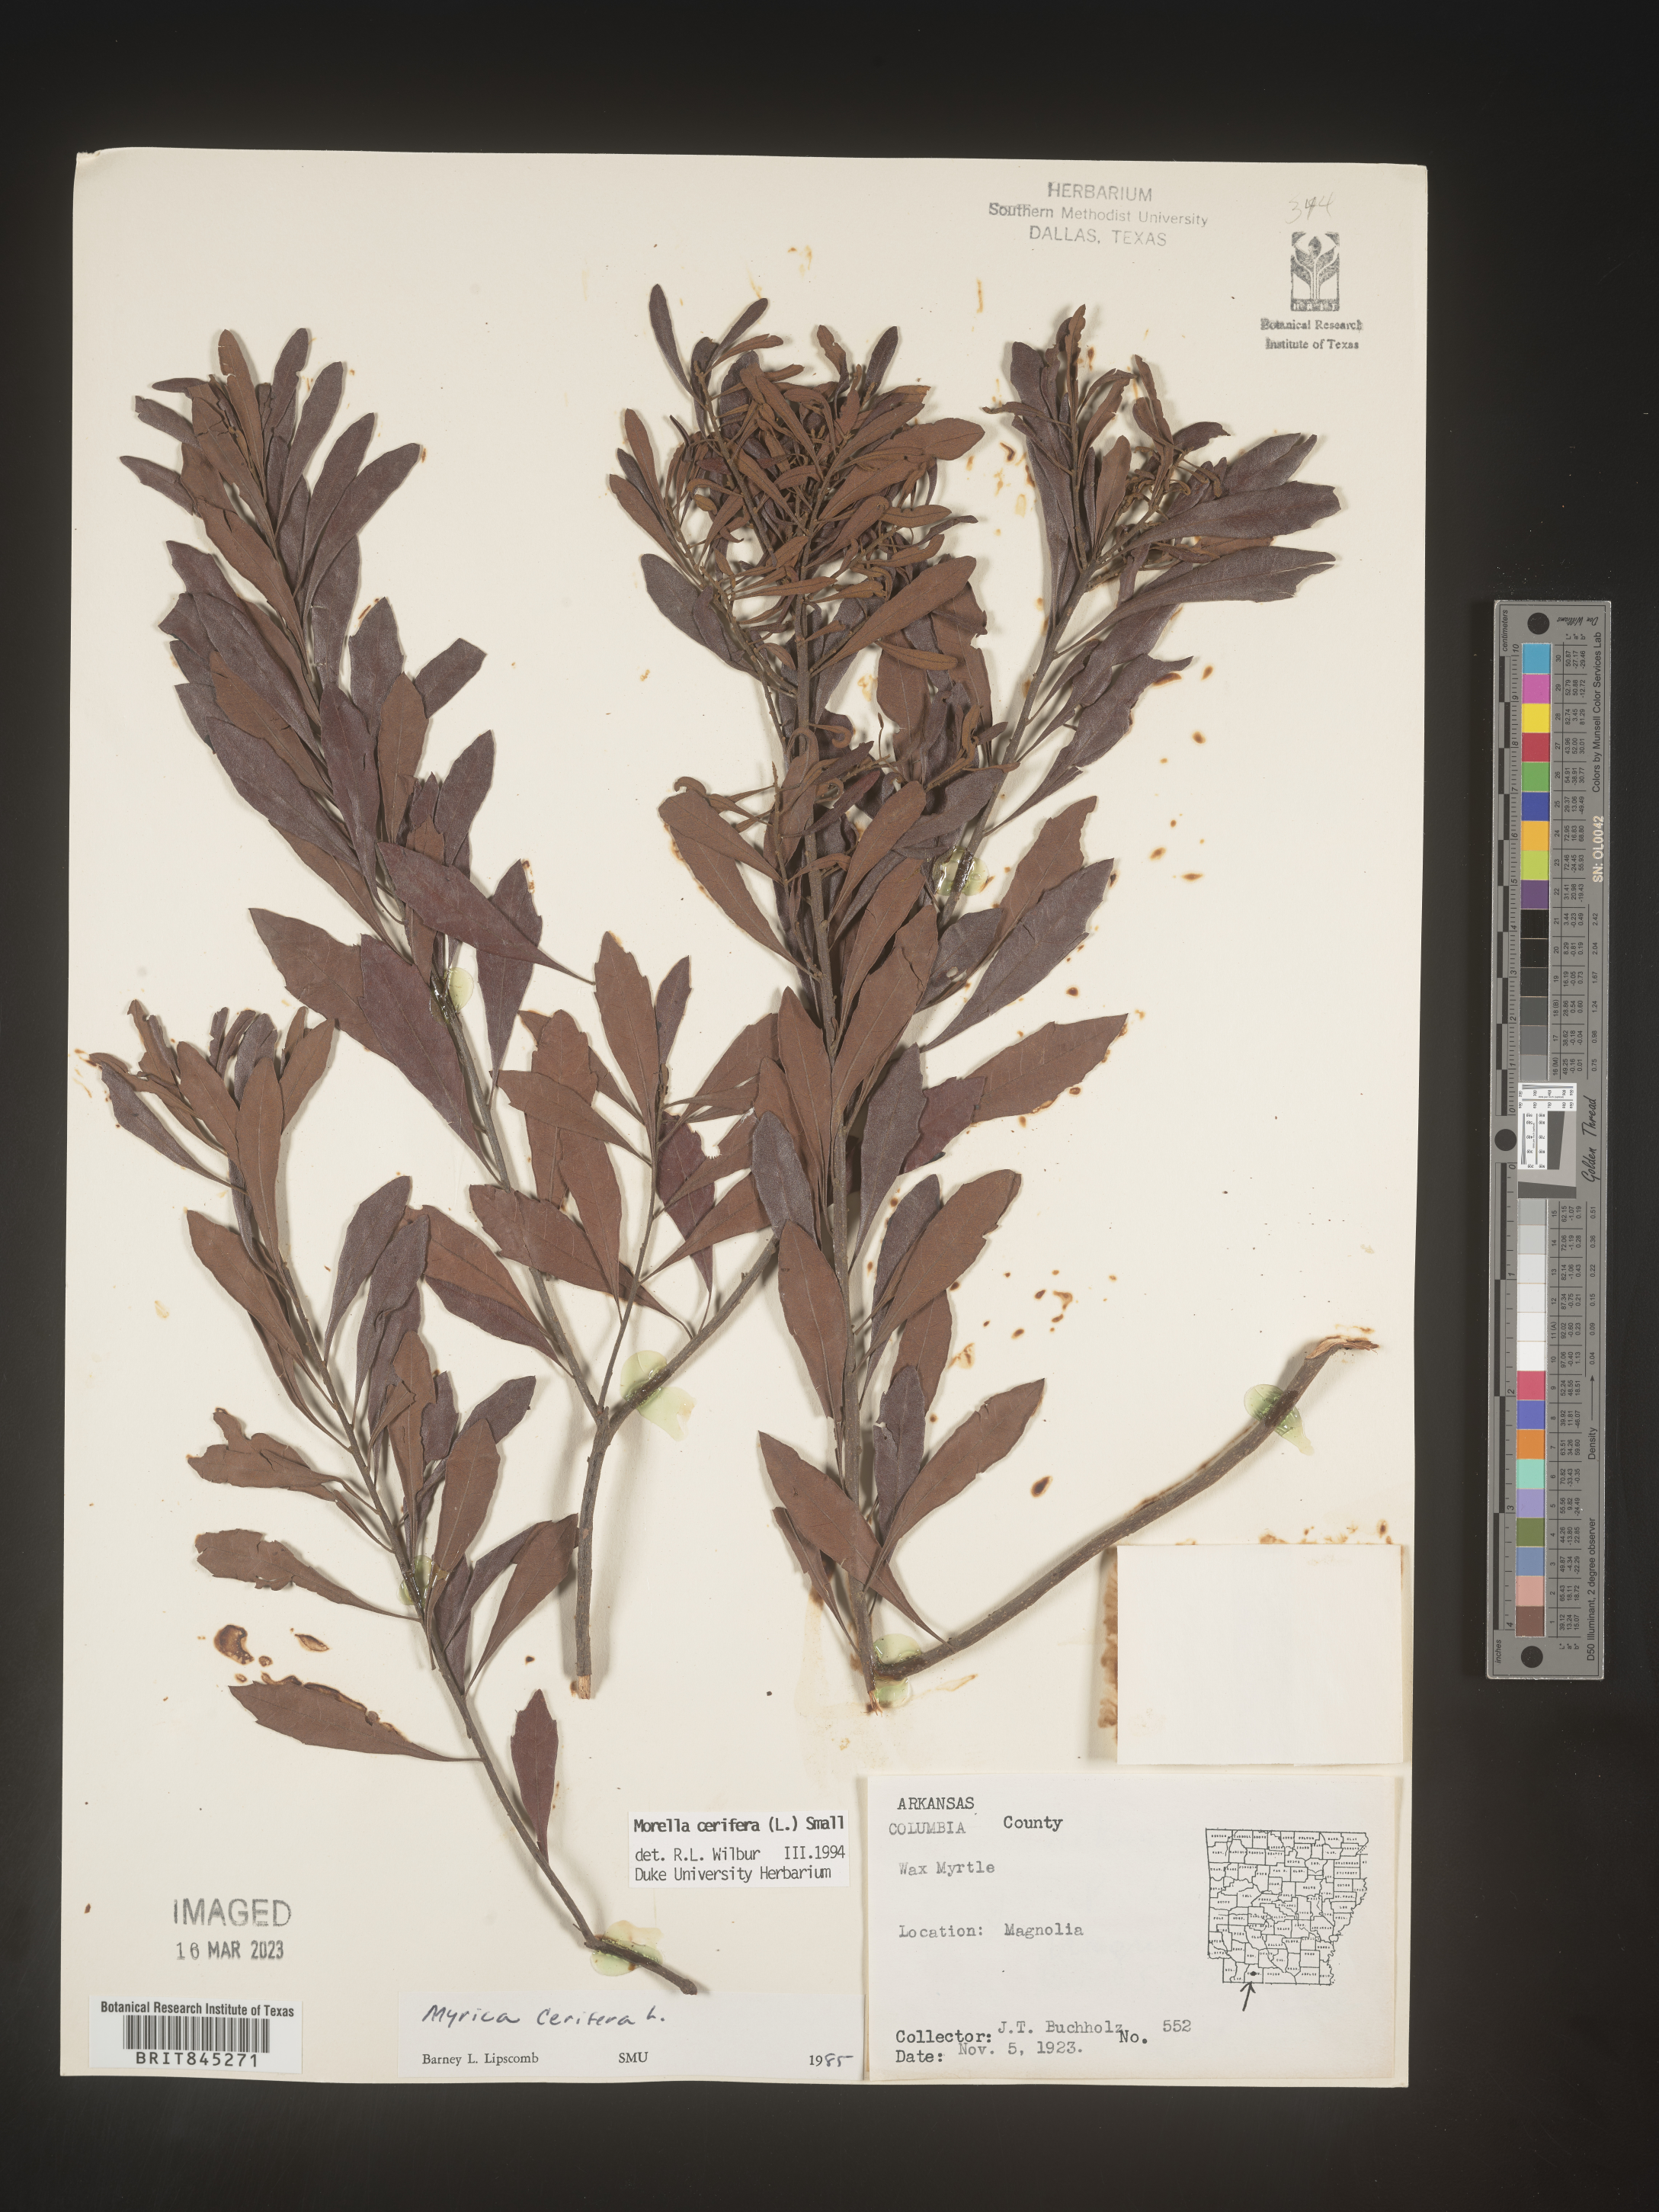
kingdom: Plantae
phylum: Tracheophyta
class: Magnoliopsida
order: Fagales
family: Myricaceae
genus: Morella
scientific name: Morella cerifera
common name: Wax myrtle
